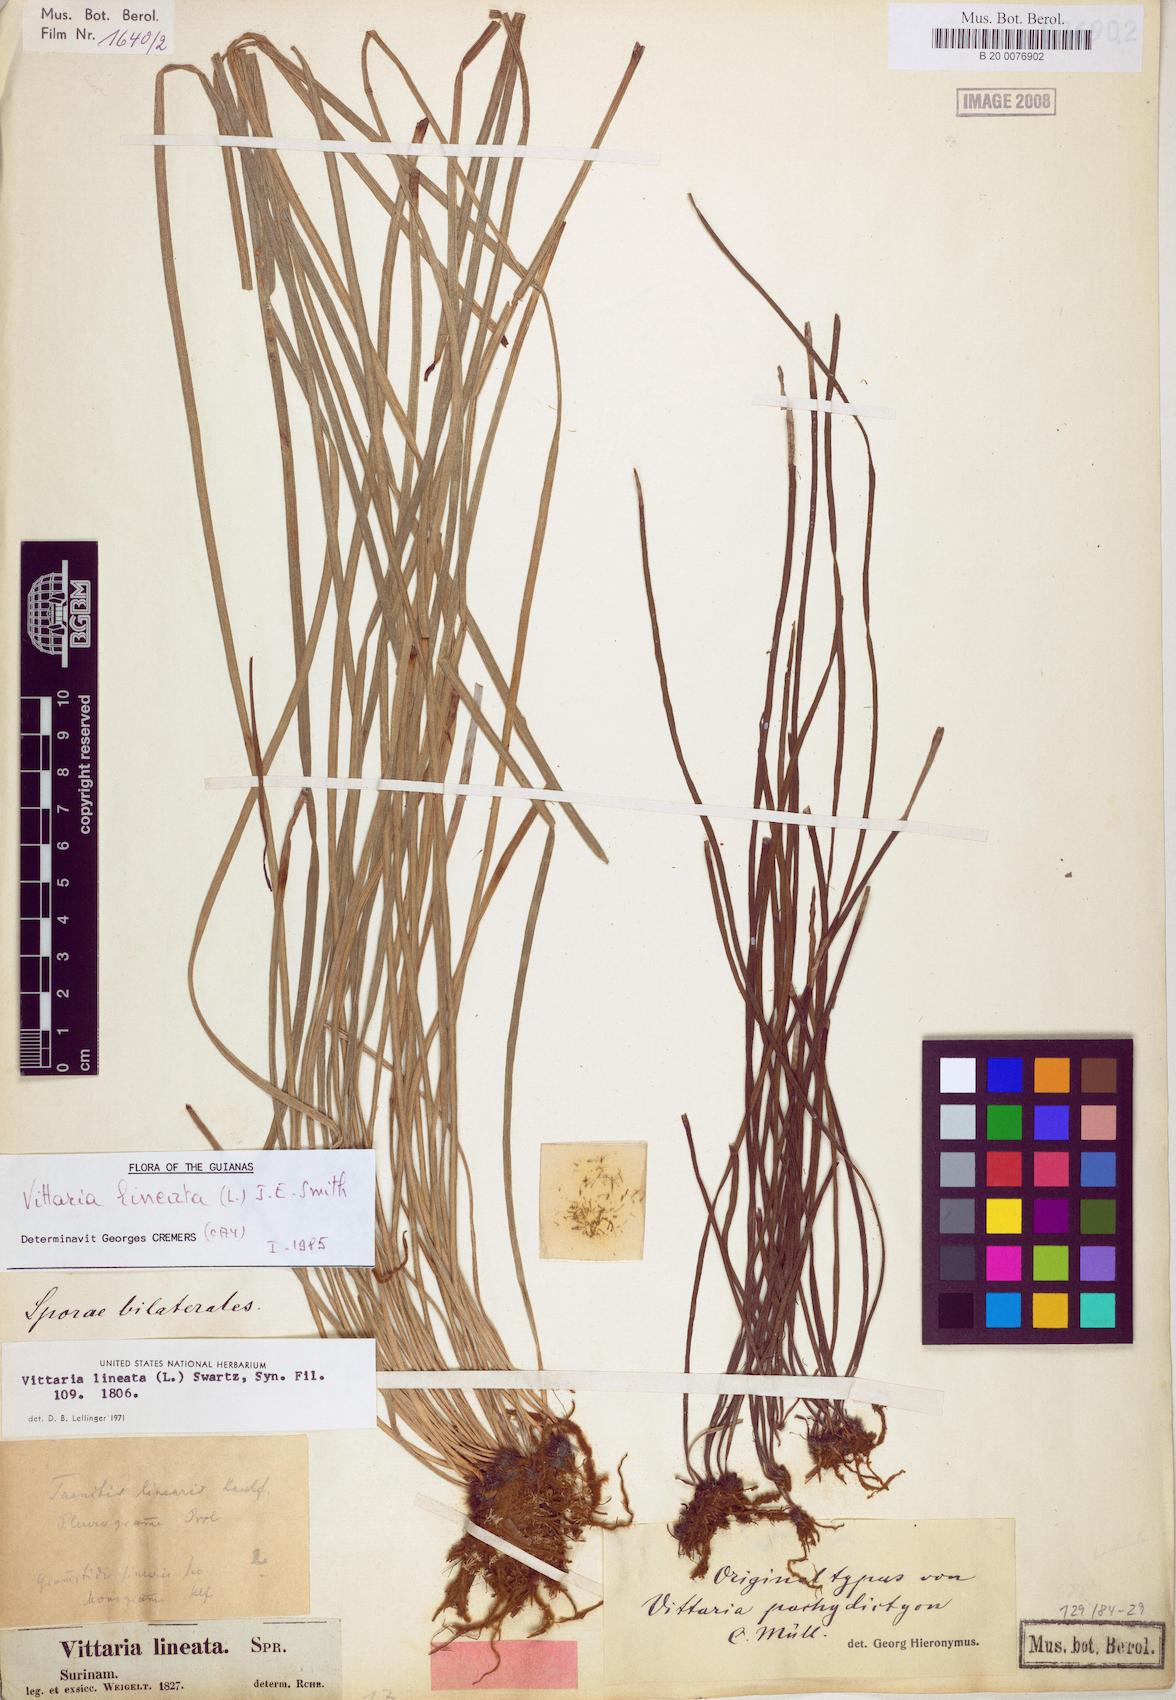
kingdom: Plantae
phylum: Tracheophyta
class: Polypodiopsida
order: Polypodiales
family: Pteridaceae
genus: Vittaria
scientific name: Vittaria lineata
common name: Shoestring fern
